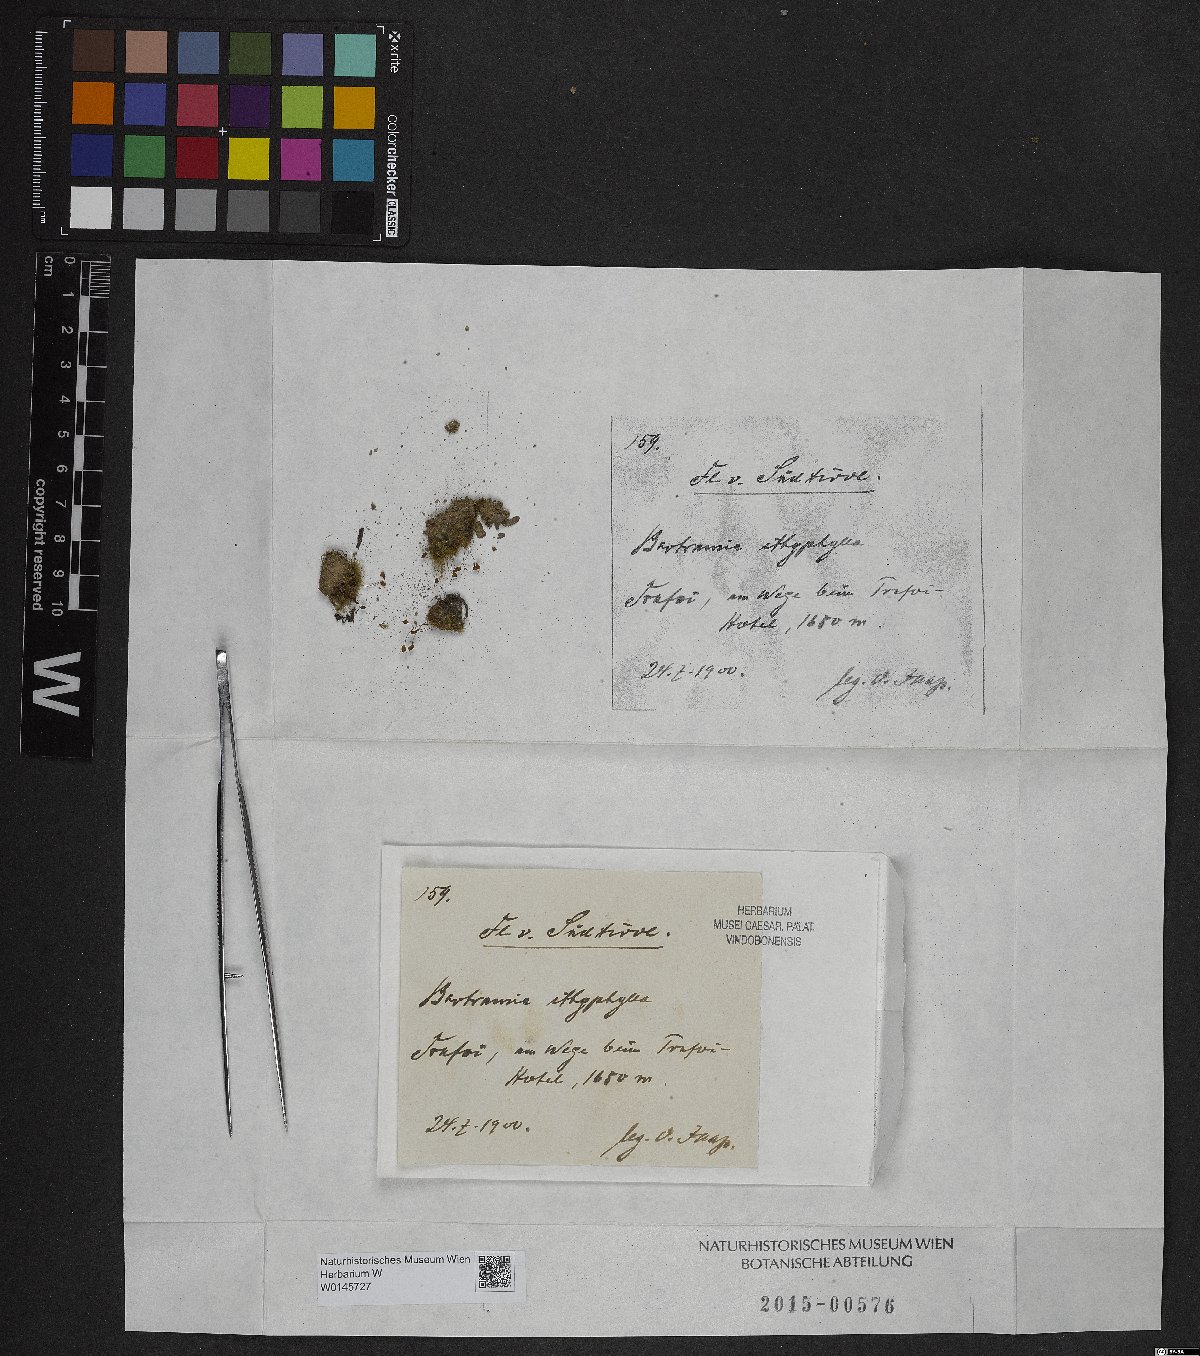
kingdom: Plantae
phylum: Bryophyta
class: Bryopsida
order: Bartramiales
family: Bartramiaceae
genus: Bartramia
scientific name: Bartramia ithyphylla
